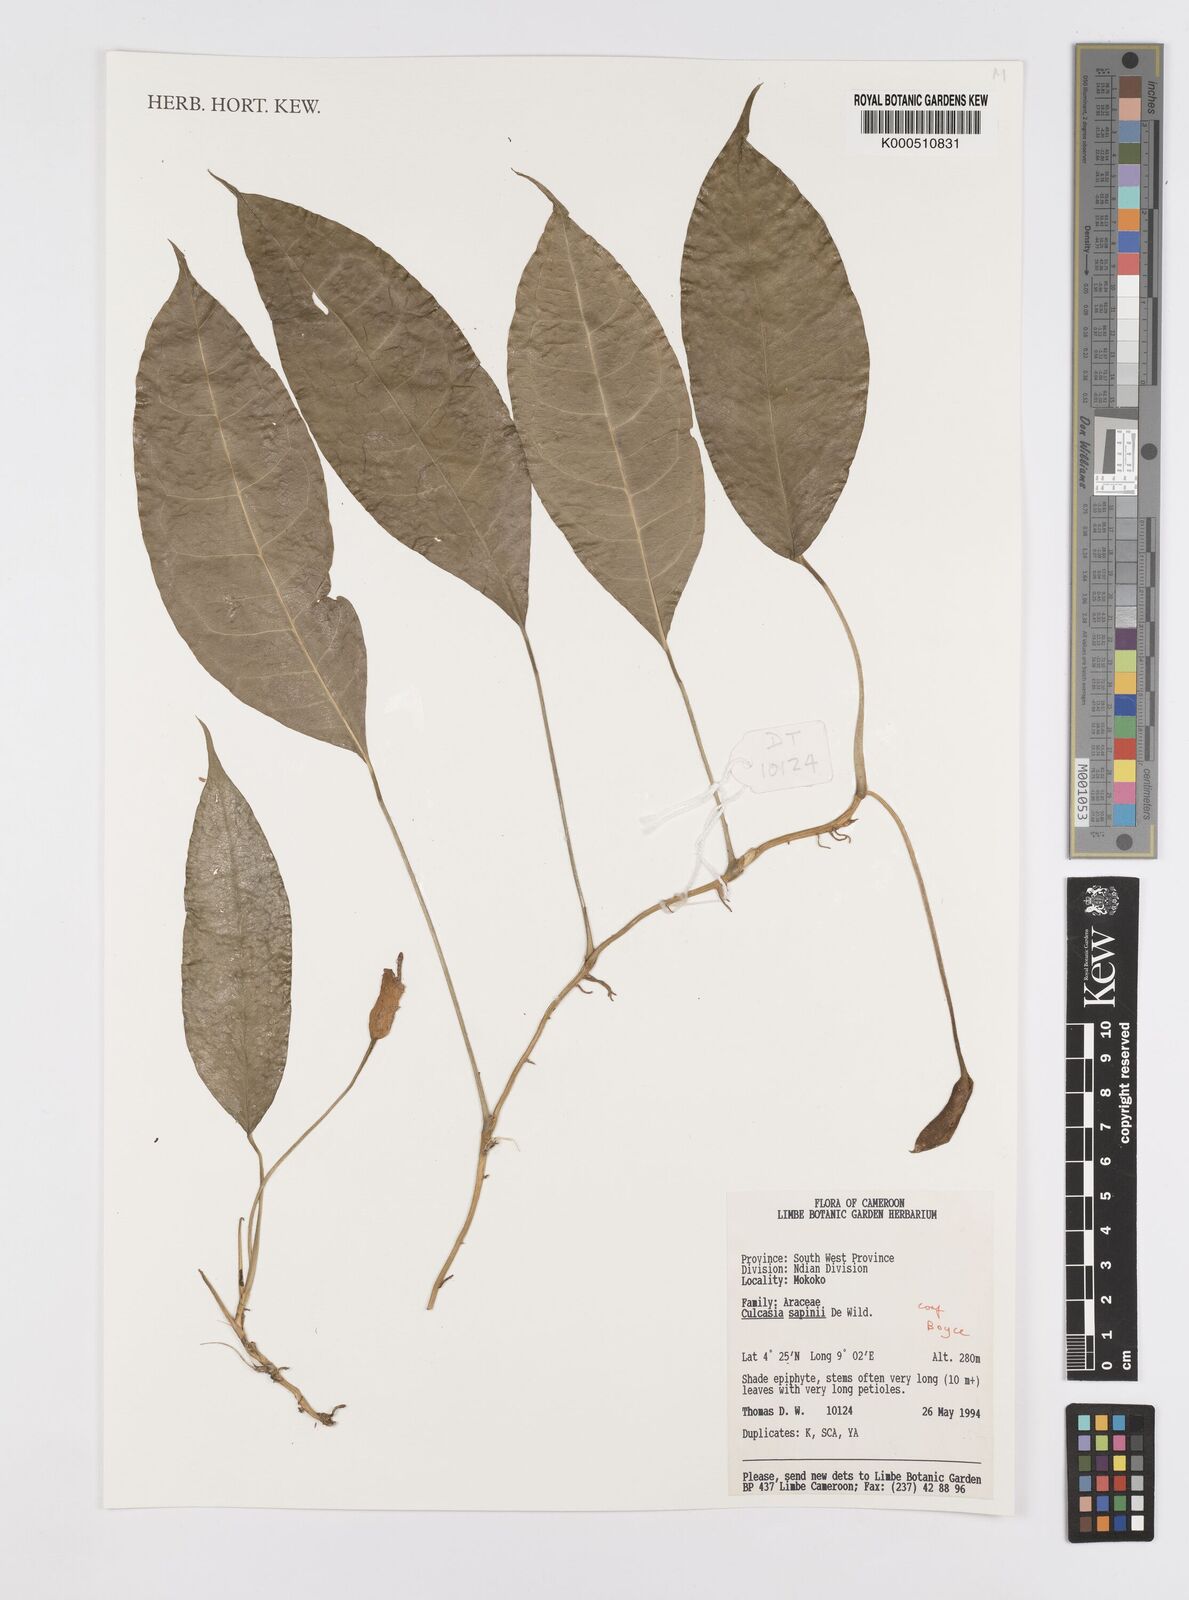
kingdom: Plantae
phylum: Tracheophyta
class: Liliopsida
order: Alismatales
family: Araceae
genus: Culcasia
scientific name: Culcasia seretii
